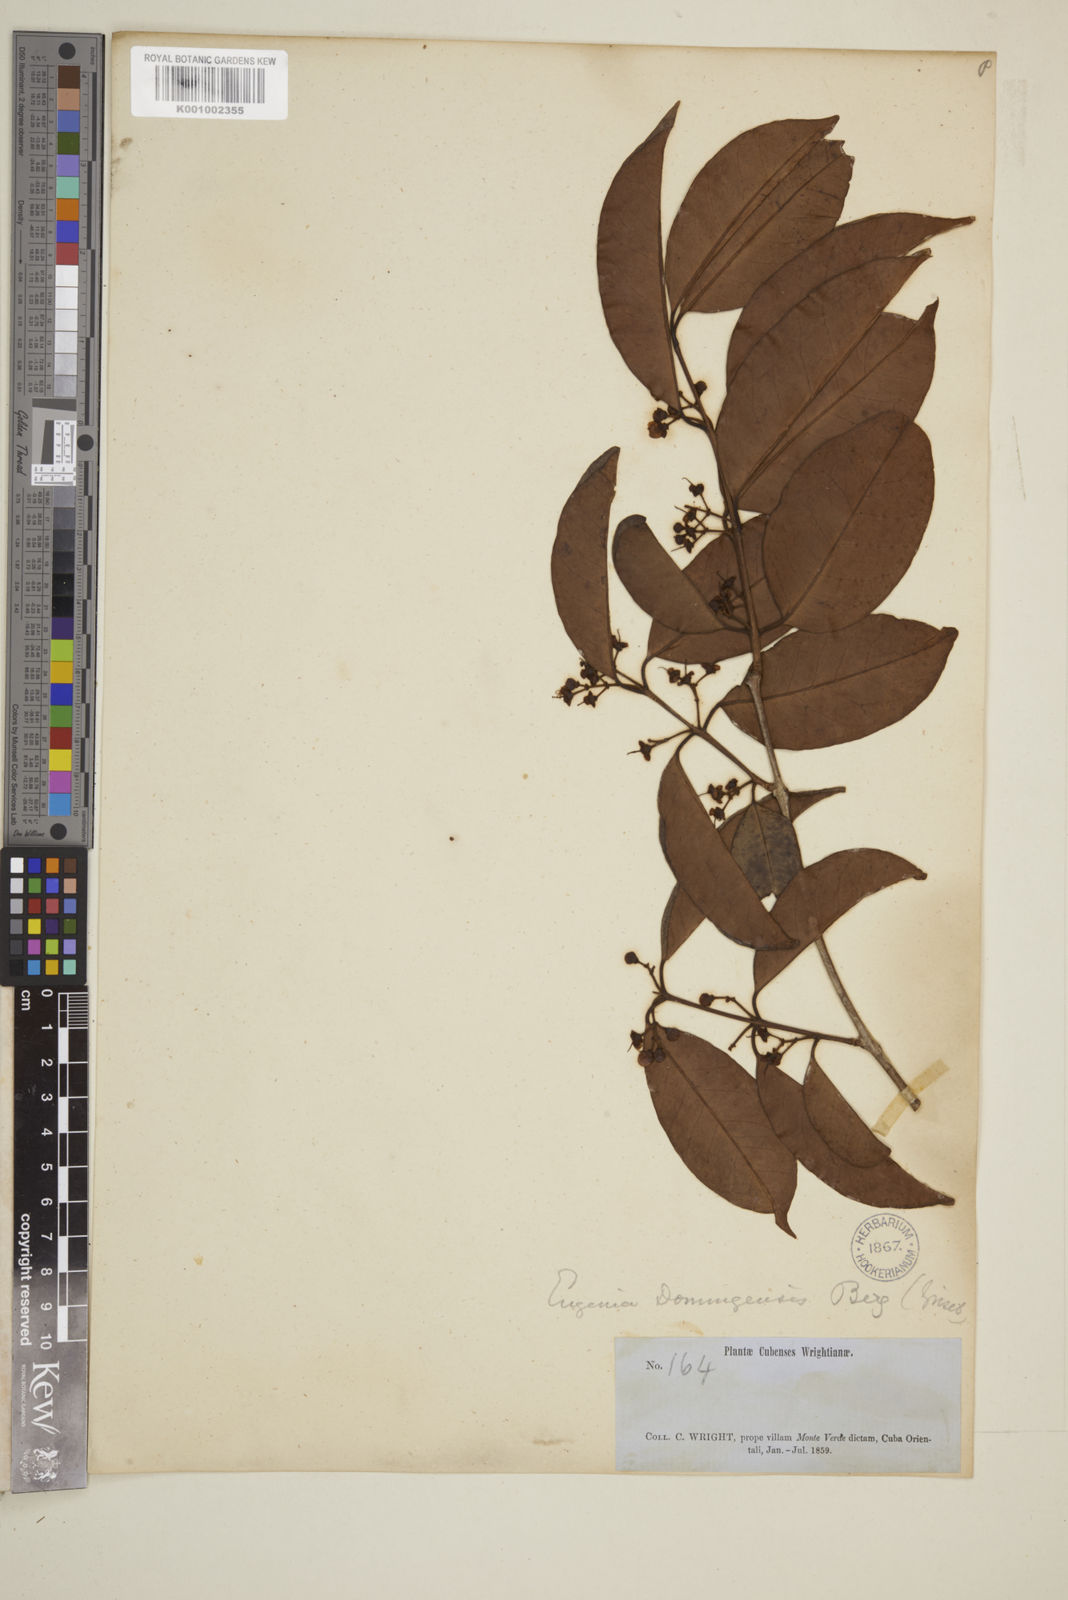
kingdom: Plantae
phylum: Tracheophyta
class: Magnoliopsida
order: Myrtales
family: Myrtaceae
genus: Eugenia
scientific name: Eugenia aeruginea
